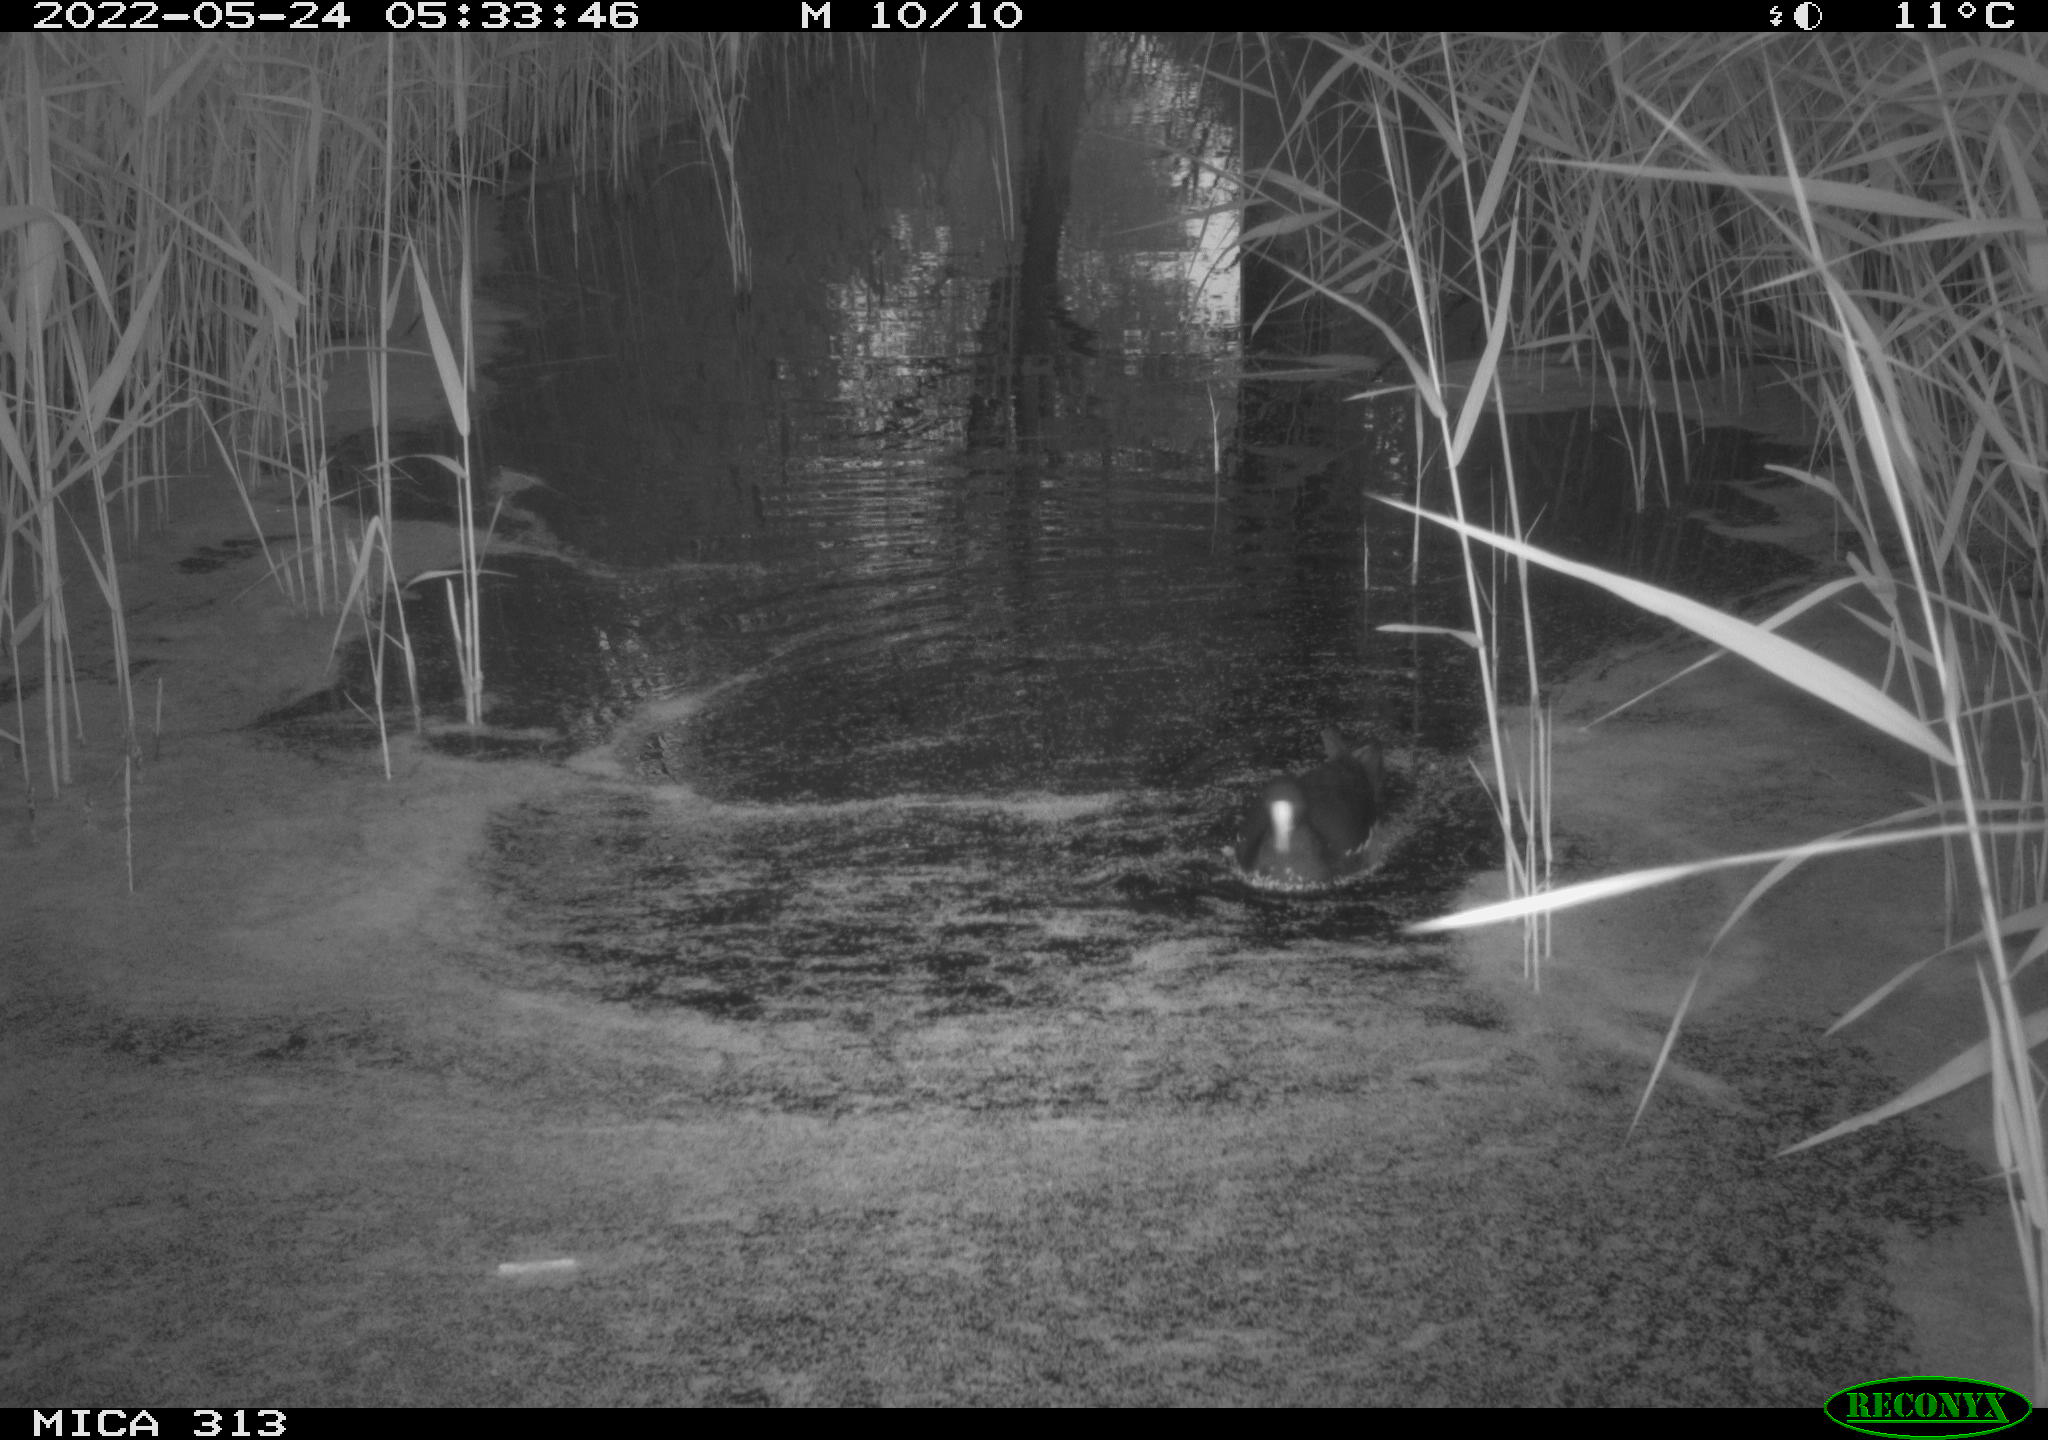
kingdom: Animalia
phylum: Chordata
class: Aves
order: Gruiformes
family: Rallidae
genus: Gallinula
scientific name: Gallinula chloropus
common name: Common moorhen
